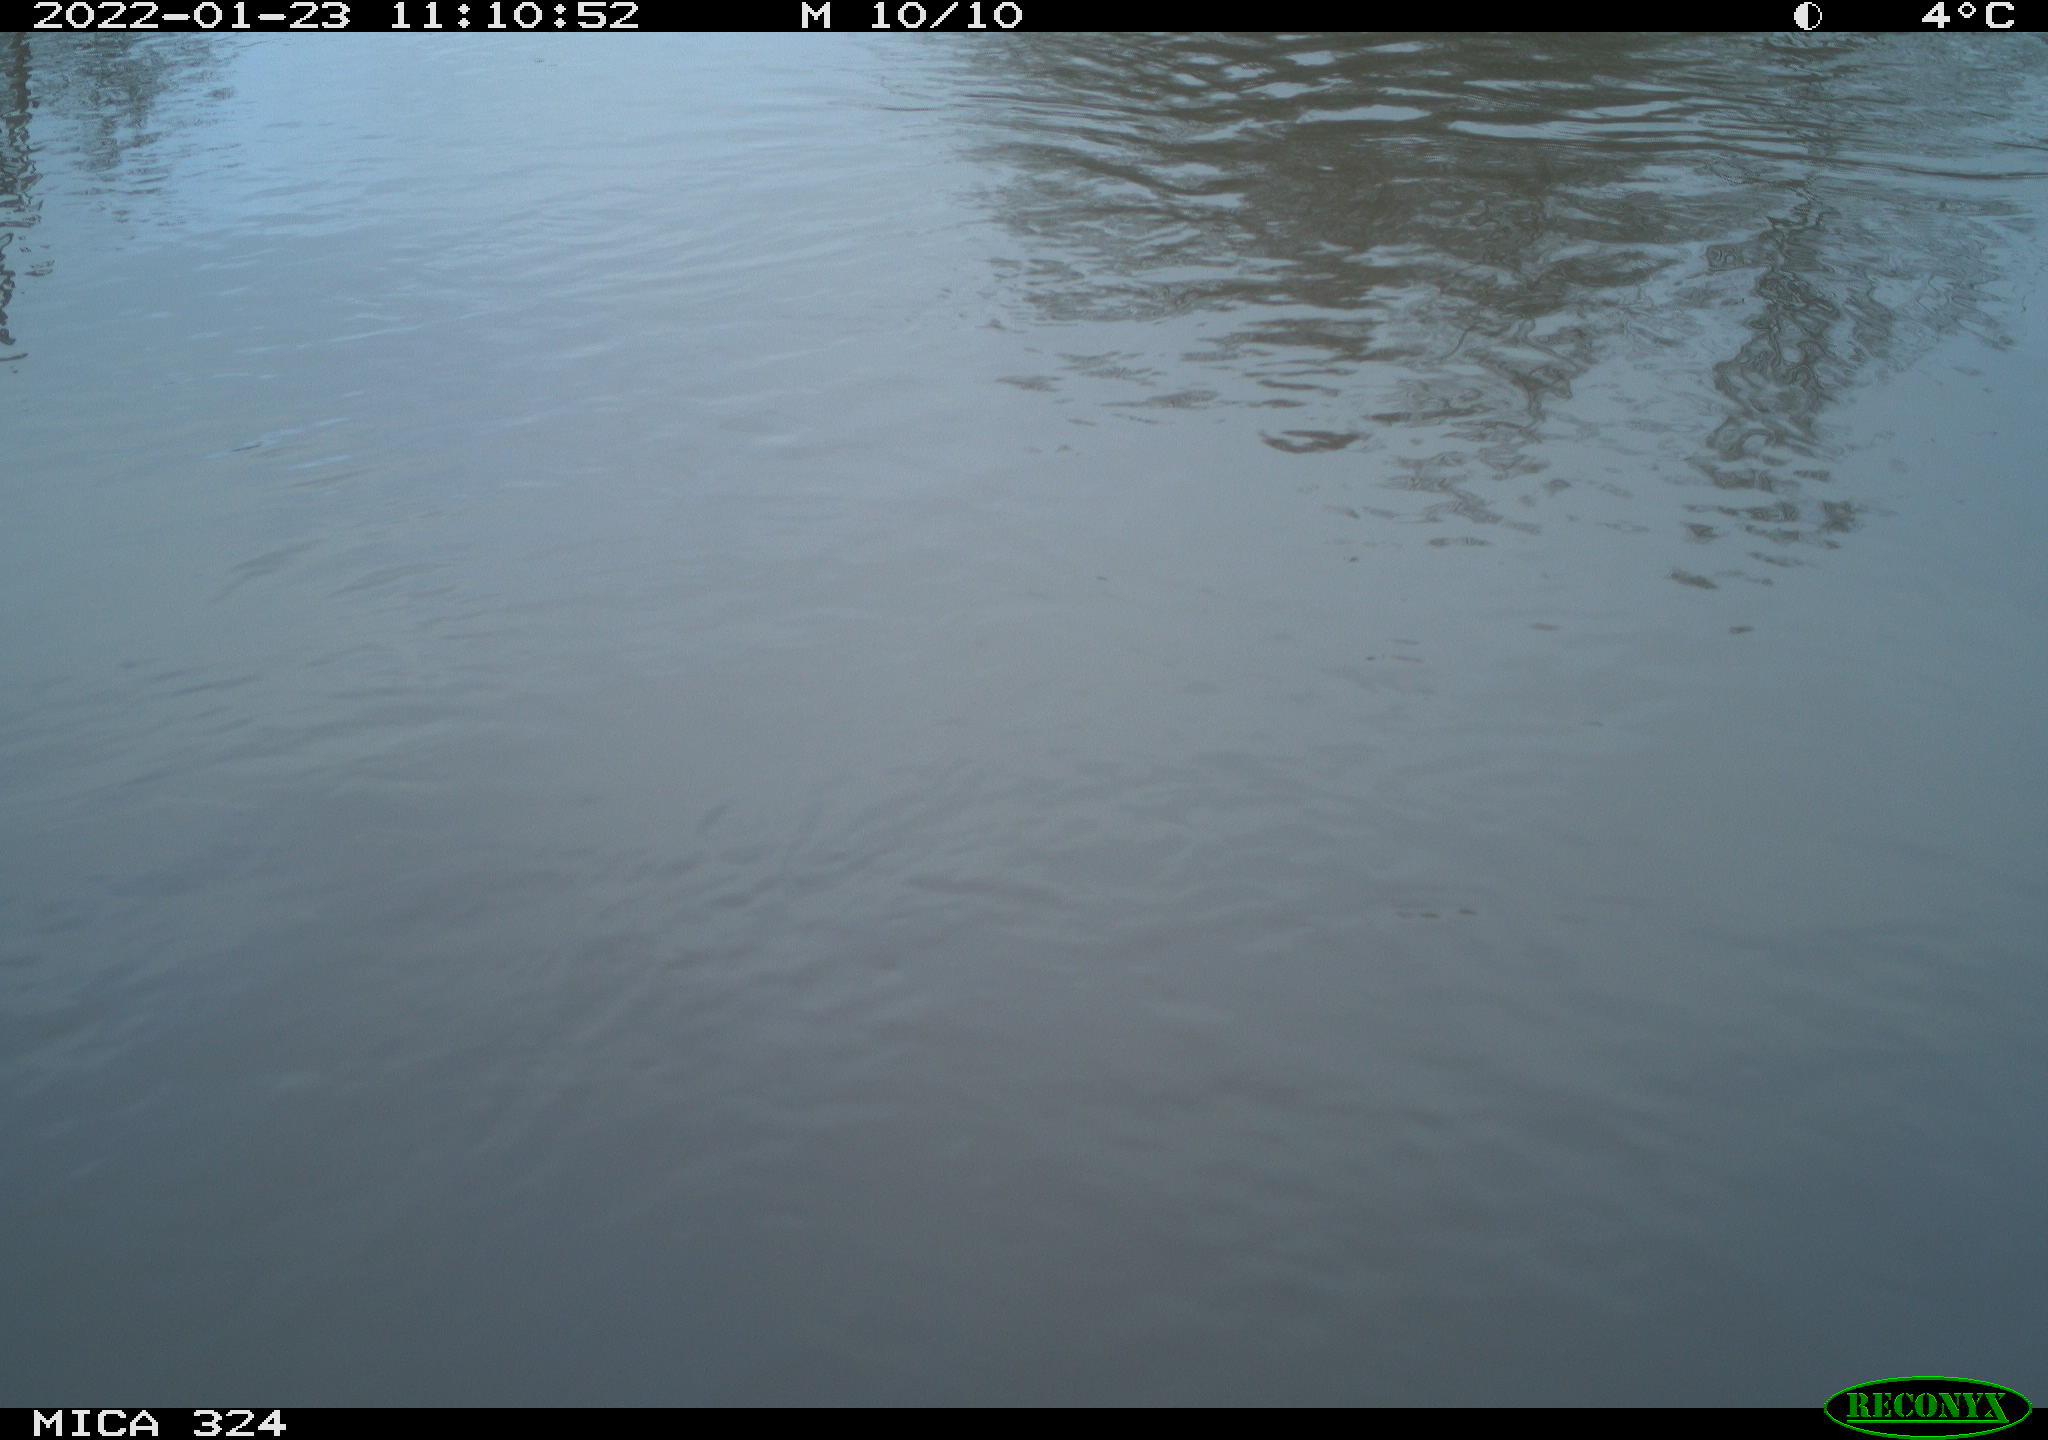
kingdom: Animalia
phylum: Chordata
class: Aves
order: Gruiformes
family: Rallidae
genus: Gallinula
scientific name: Gallinula chloropus
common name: Common moorhen
